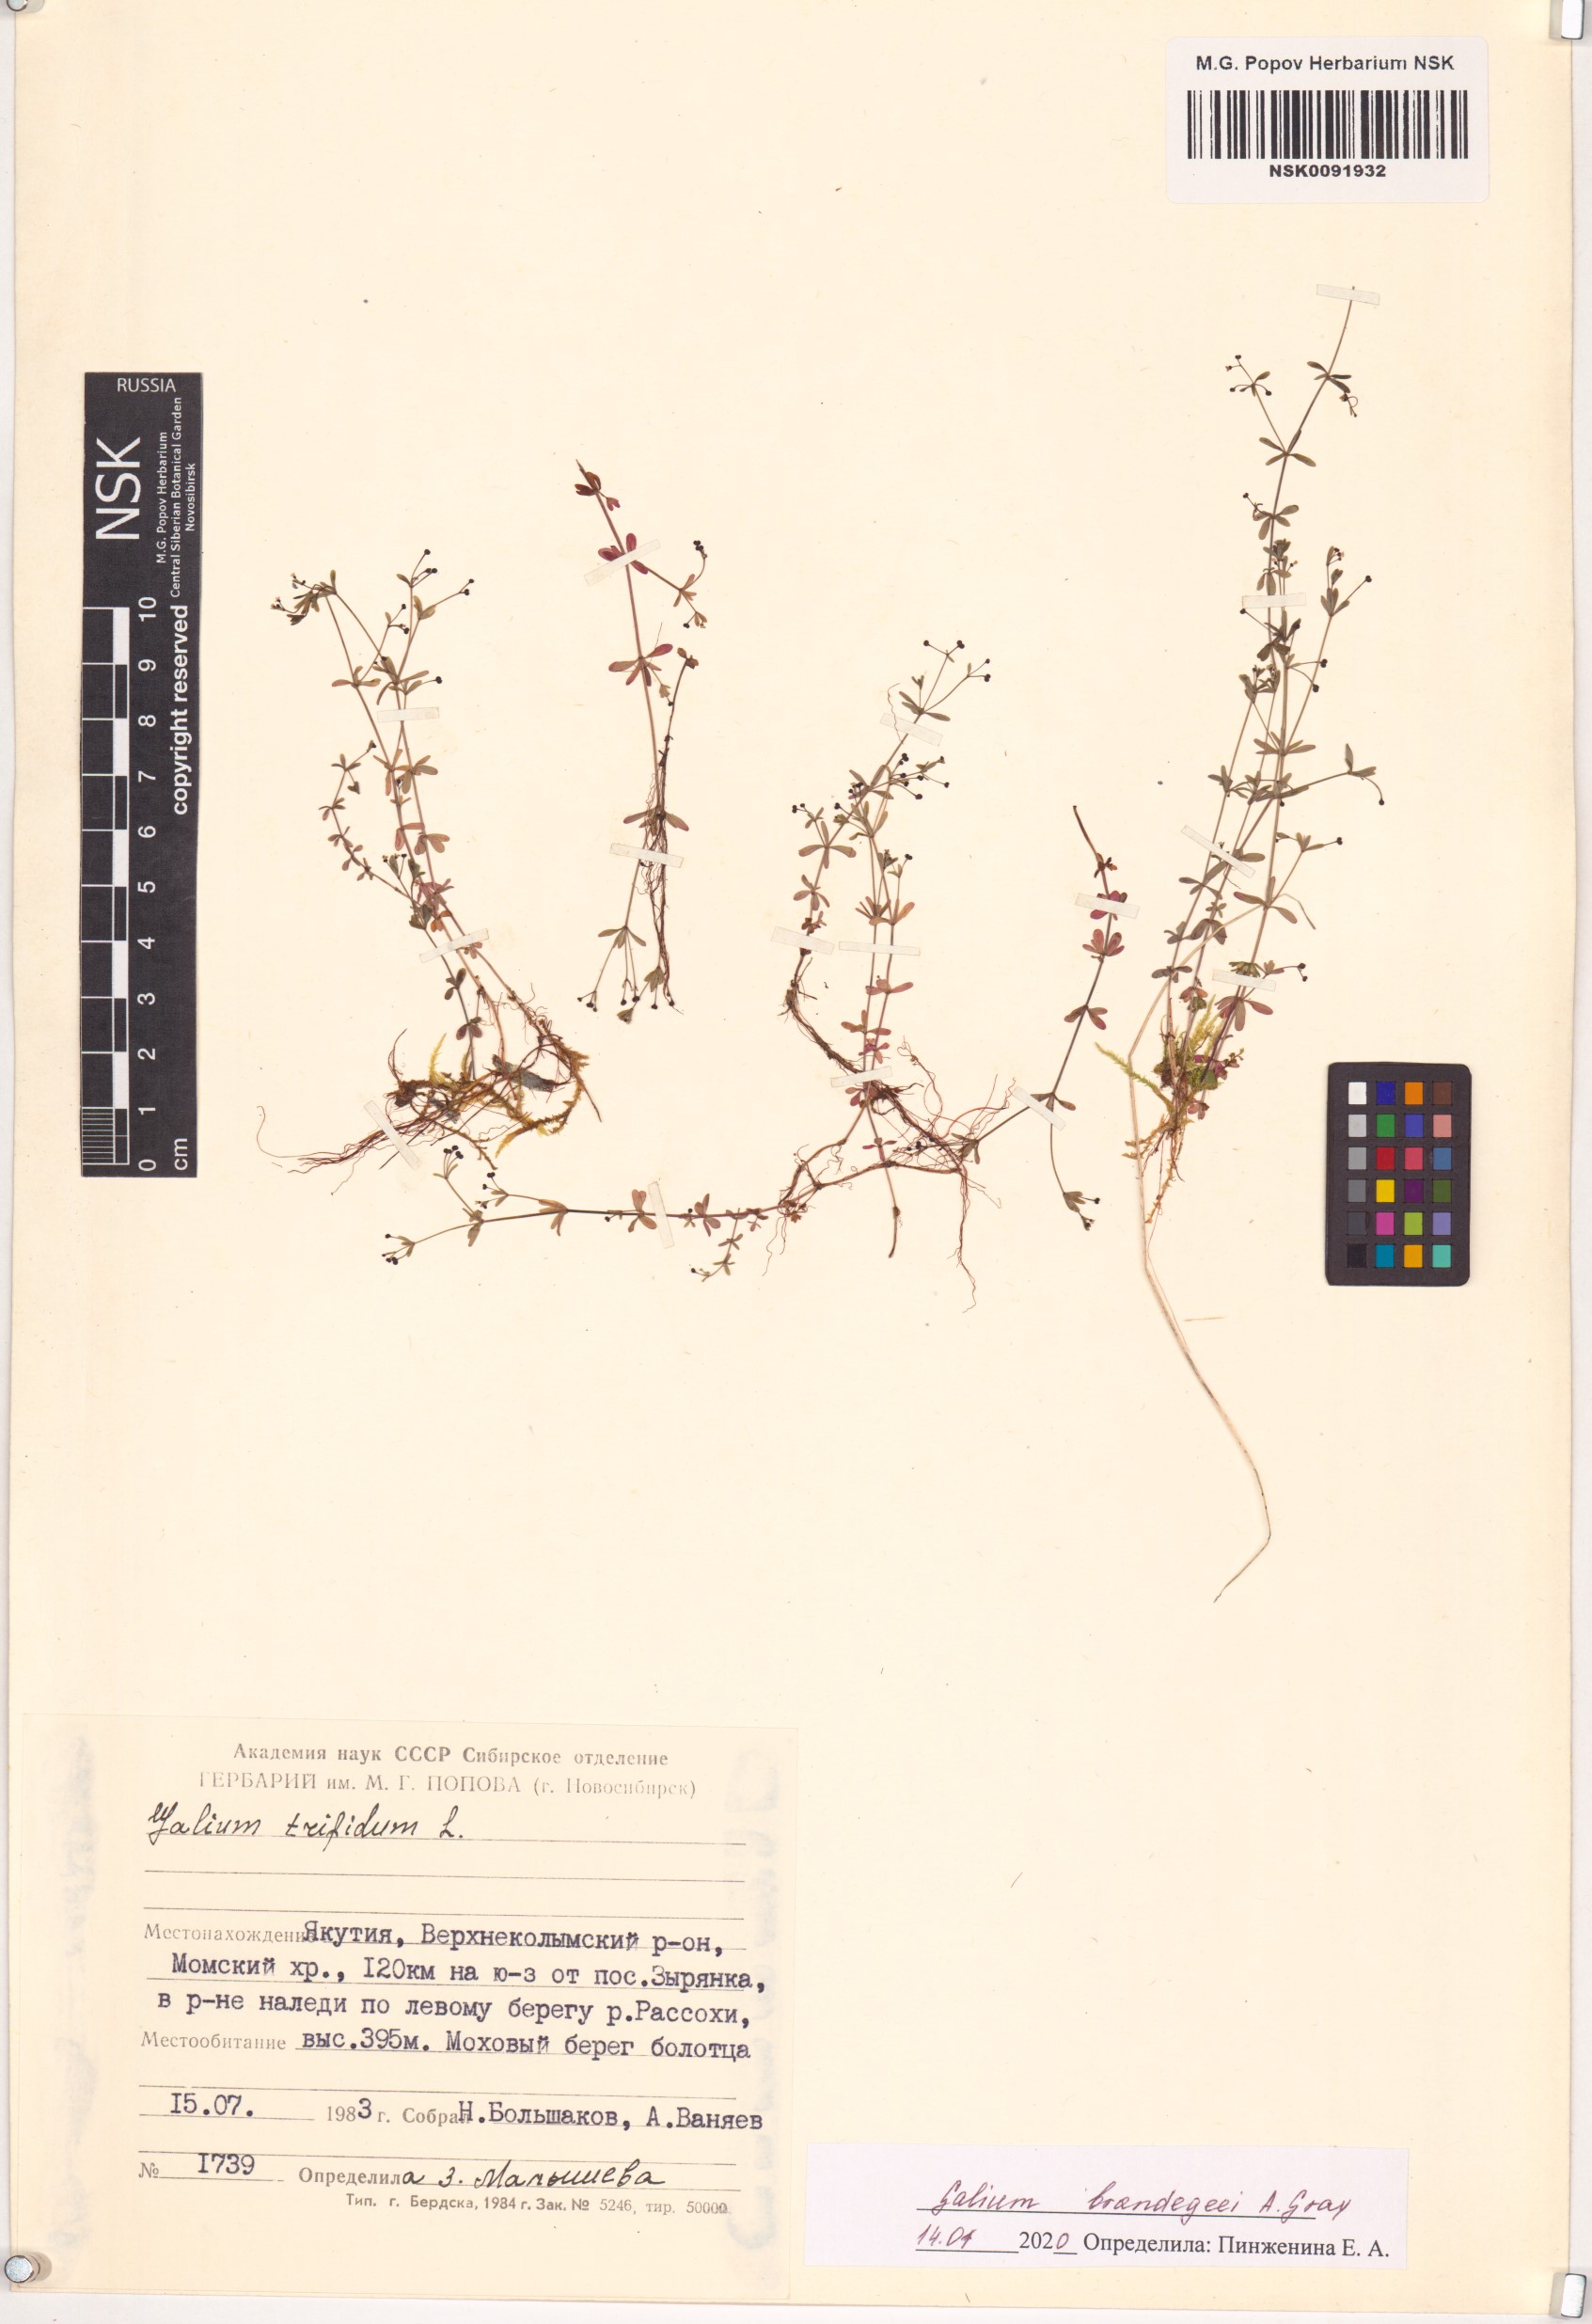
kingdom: Plantae
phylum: Tracheophyta
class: Magnoliopsida
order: Gentianales
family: Rubiaceae
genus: Galium
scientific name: Galium trifidum
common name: Small bedstraw
